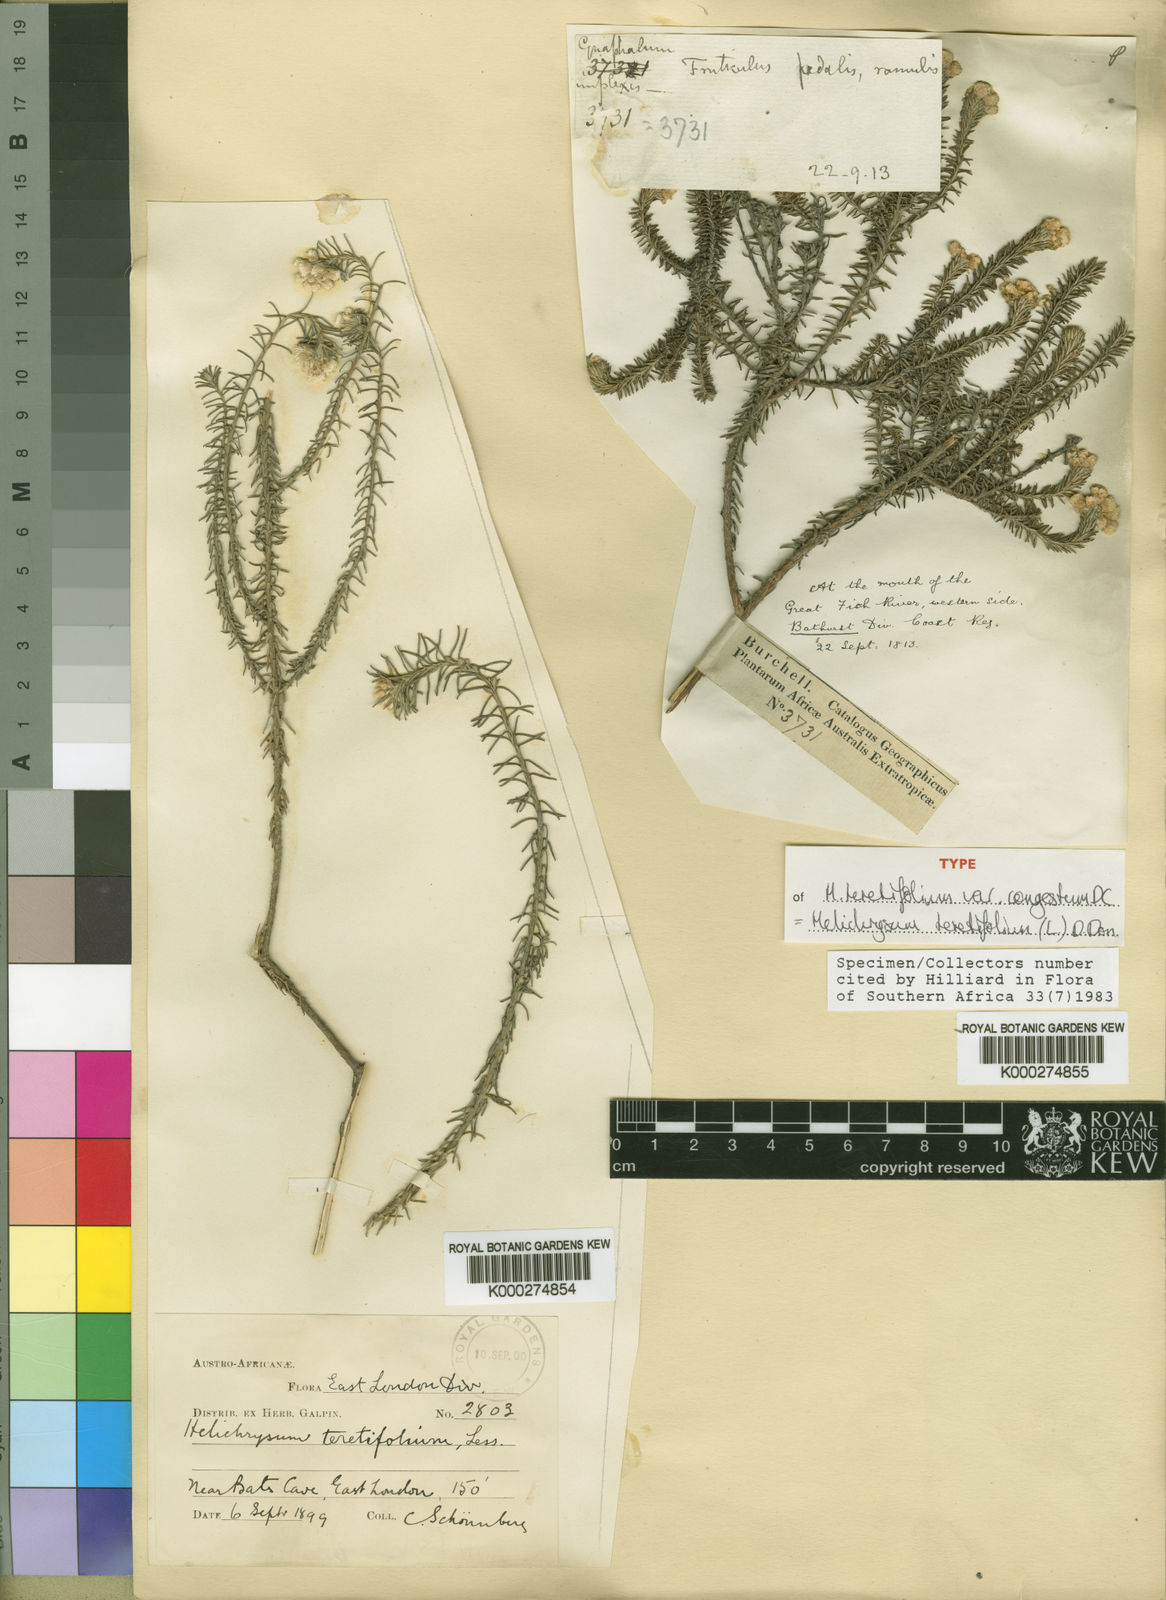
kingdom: Plantae
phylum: Tracheophyta
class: Magnoliopsida
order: Asterales
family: Asteraceae
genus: Helichrysum
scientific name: Helichrysum
